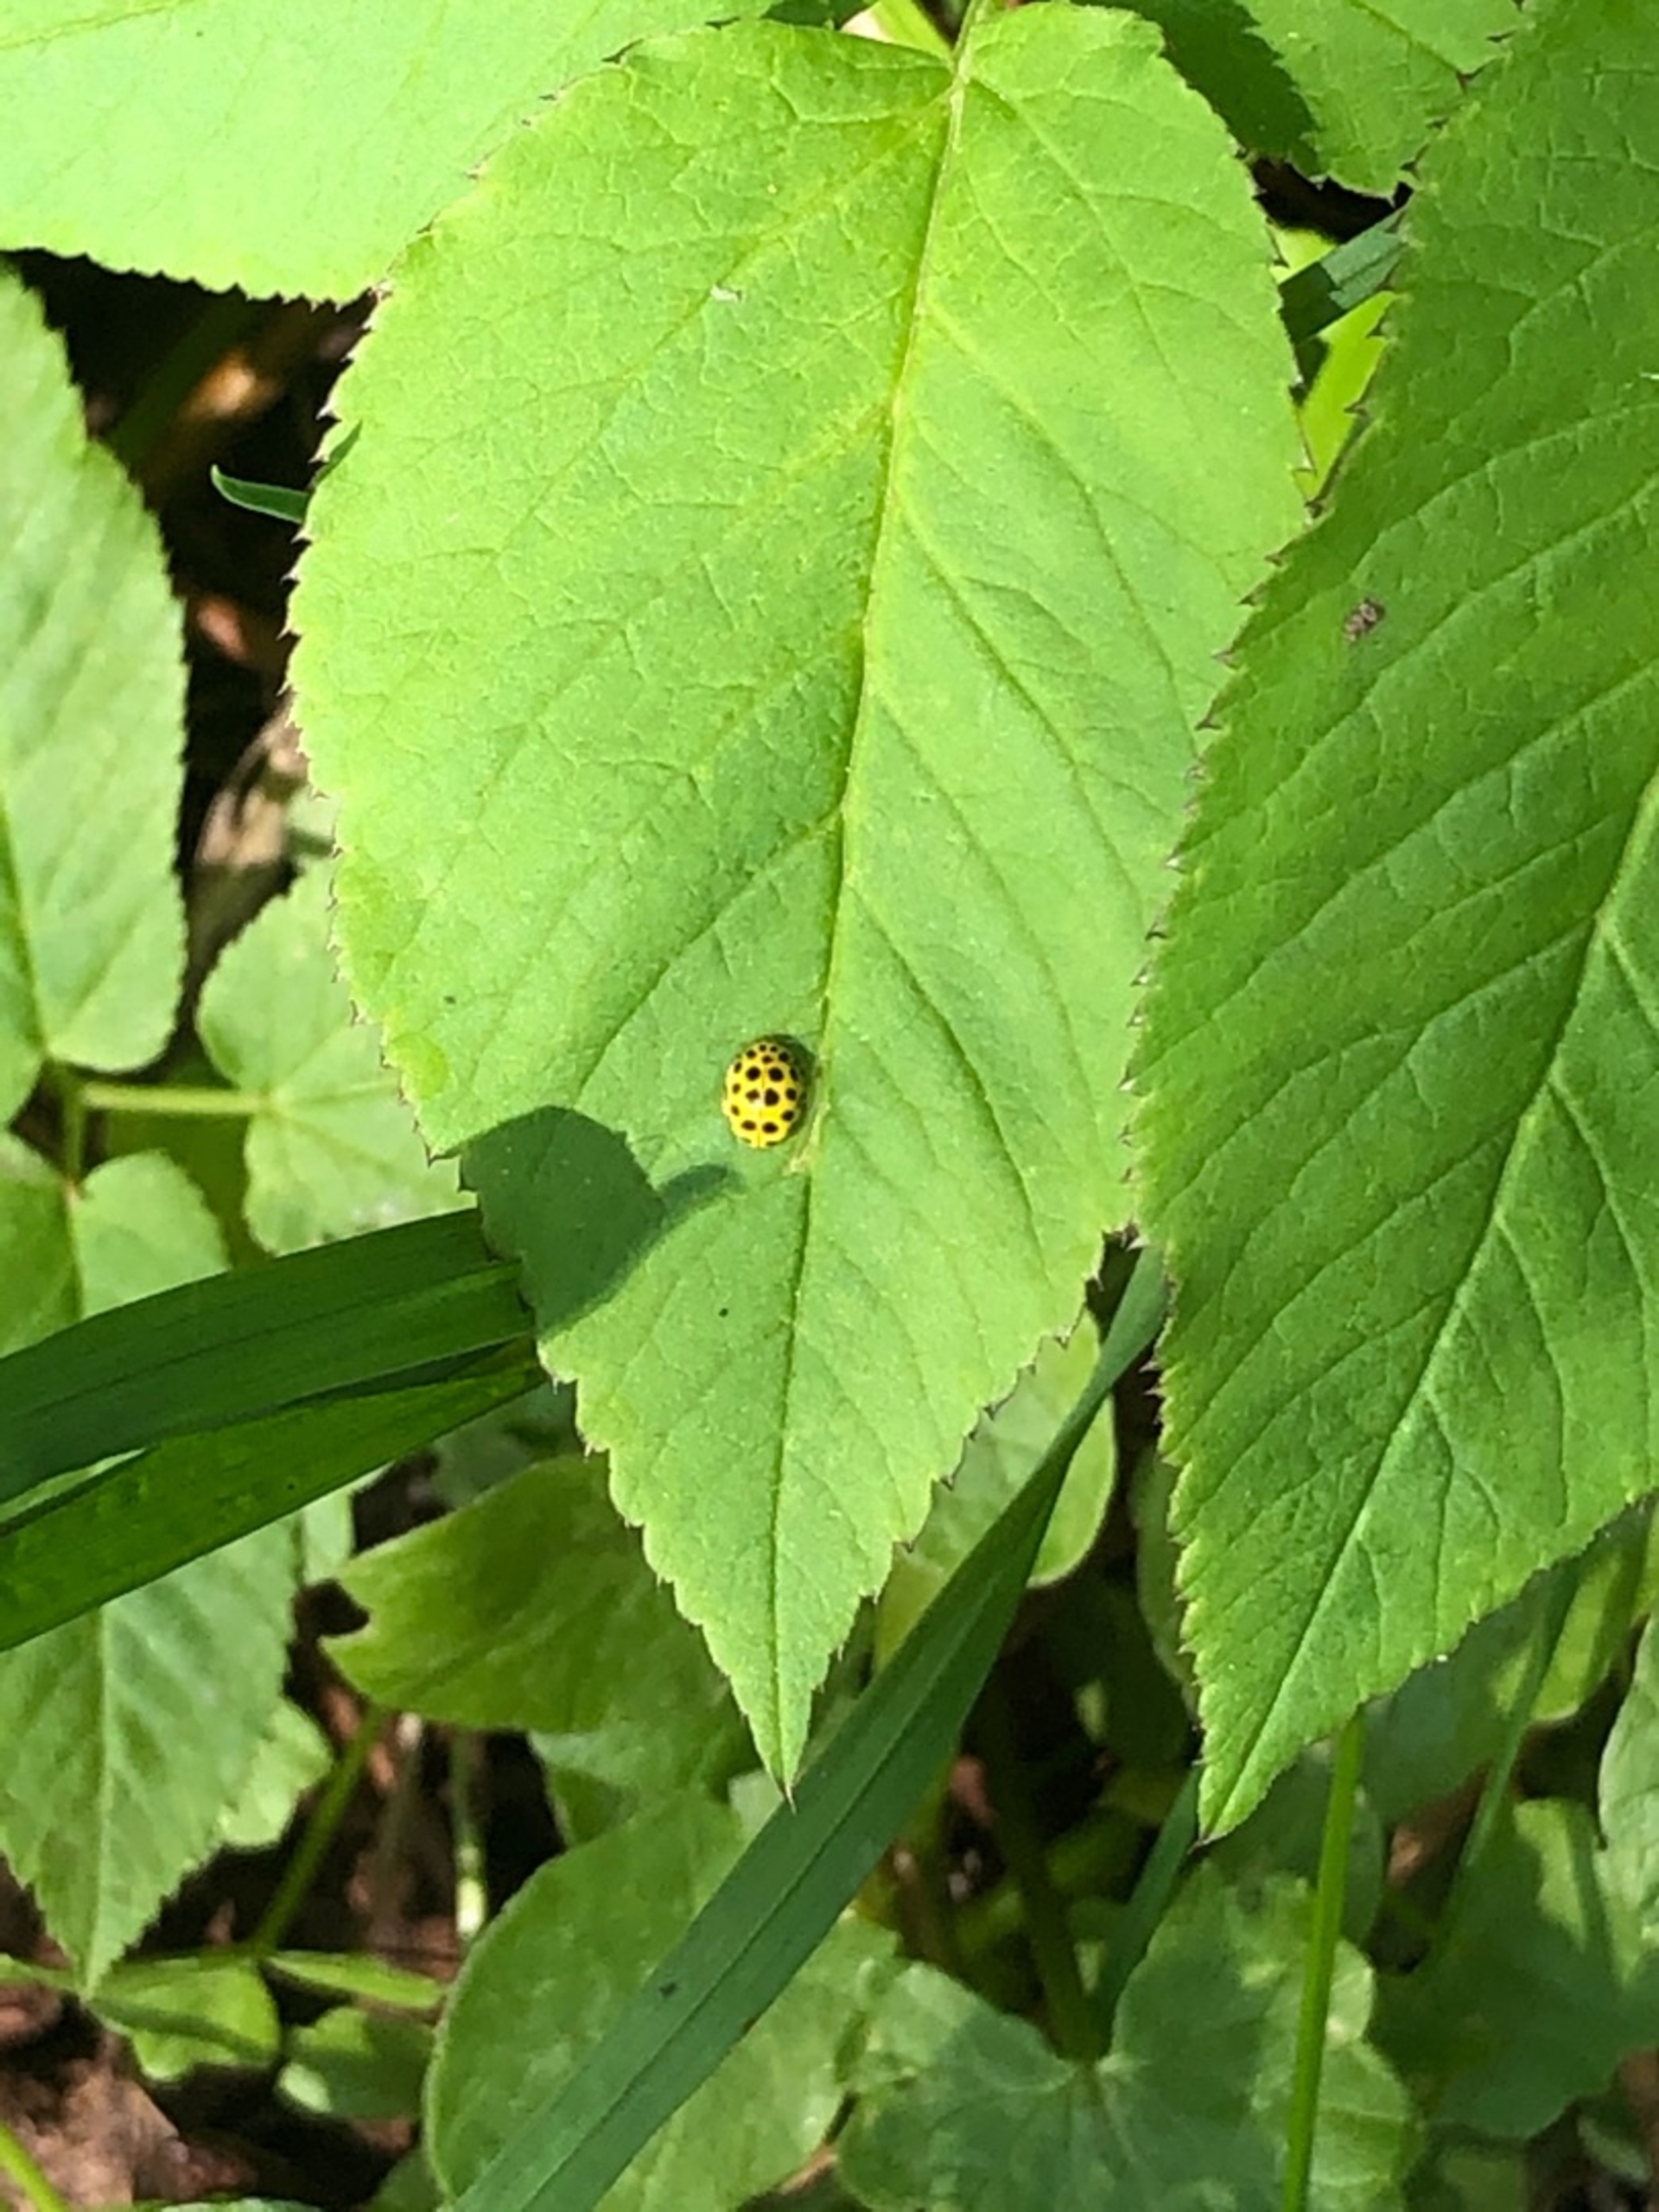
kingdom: Animalia
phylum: Arthropoda
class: Insecta
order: Coleoptera
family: Coccinellidae
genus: Psyllobora
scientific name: Psyllobora vigintiduopunctata
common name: Toogtyveplettet mariehøne
